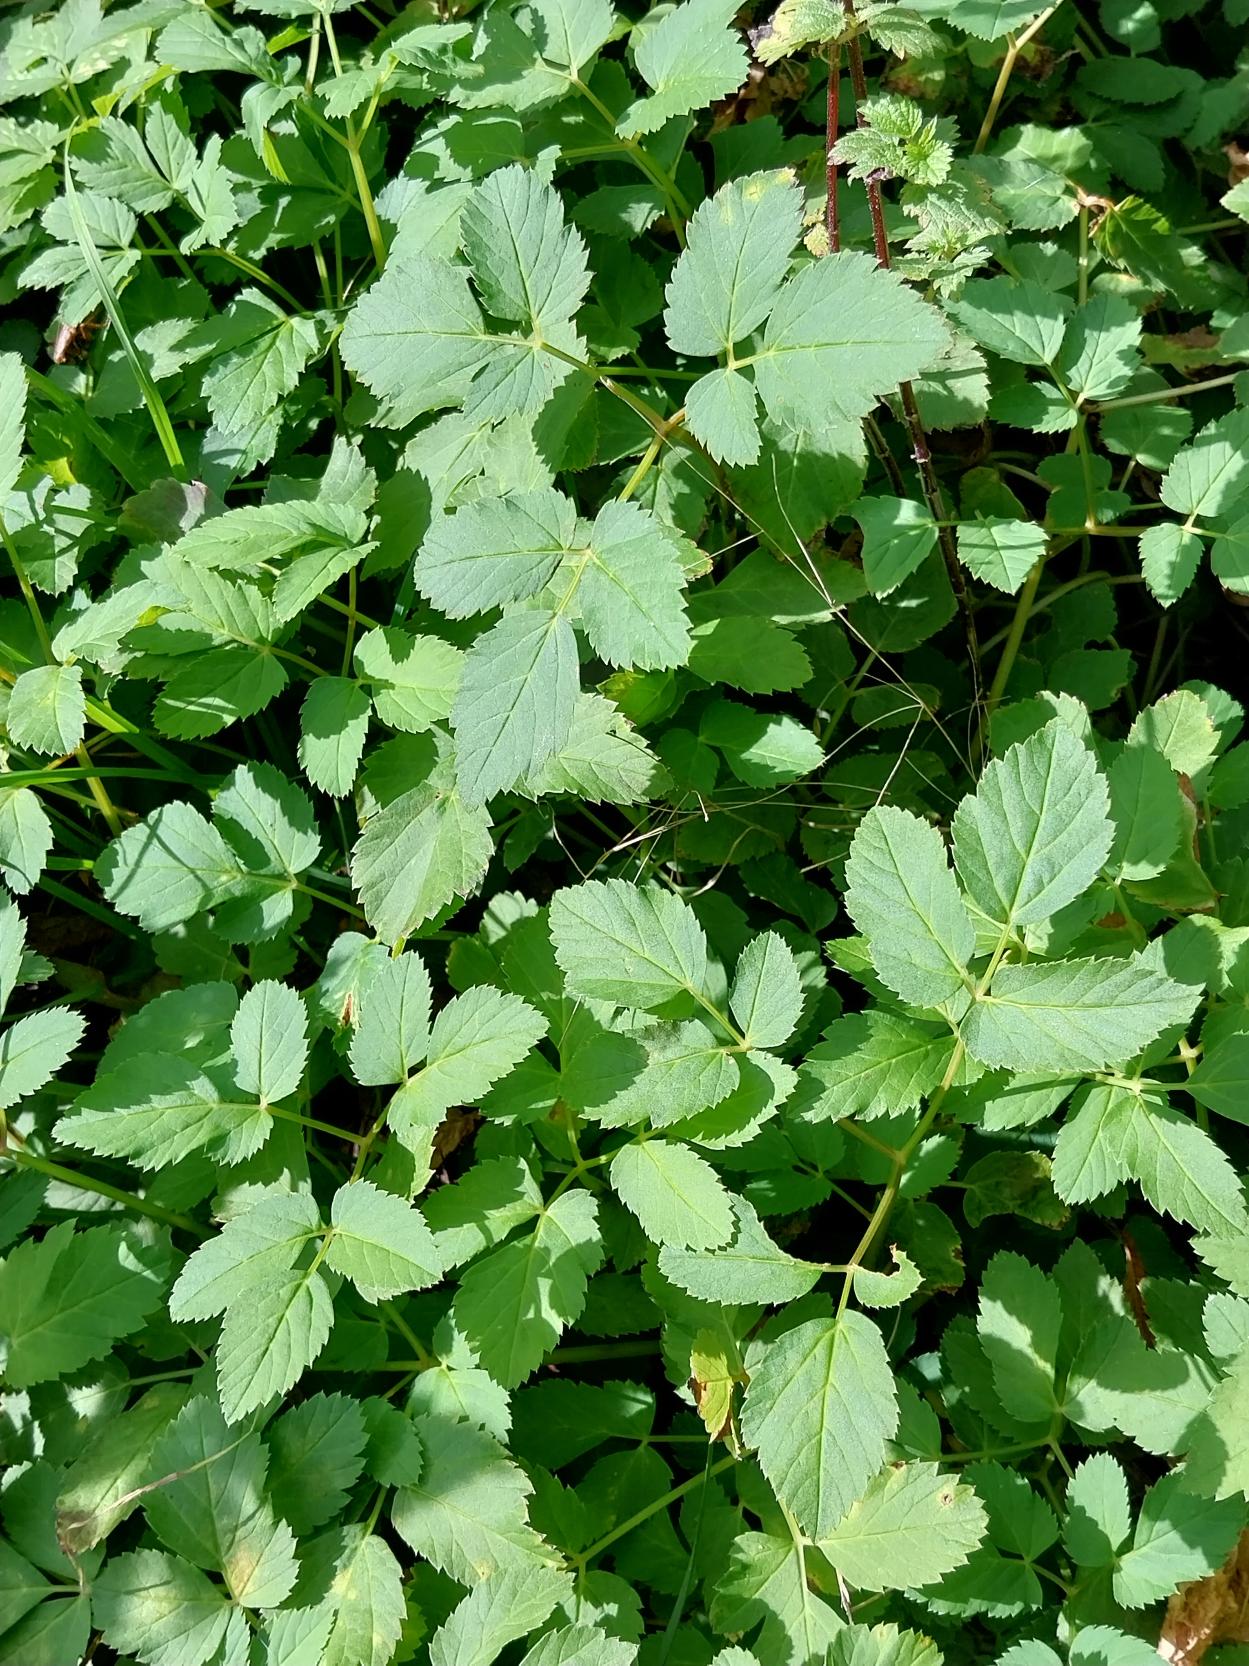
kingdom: Plantae
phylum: Tracheophyta
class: Magnoliopsida
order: Apiales
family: Apiaceae
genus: Aegopodium
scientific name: Aegopodium podagraria
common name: Skvalderkål
